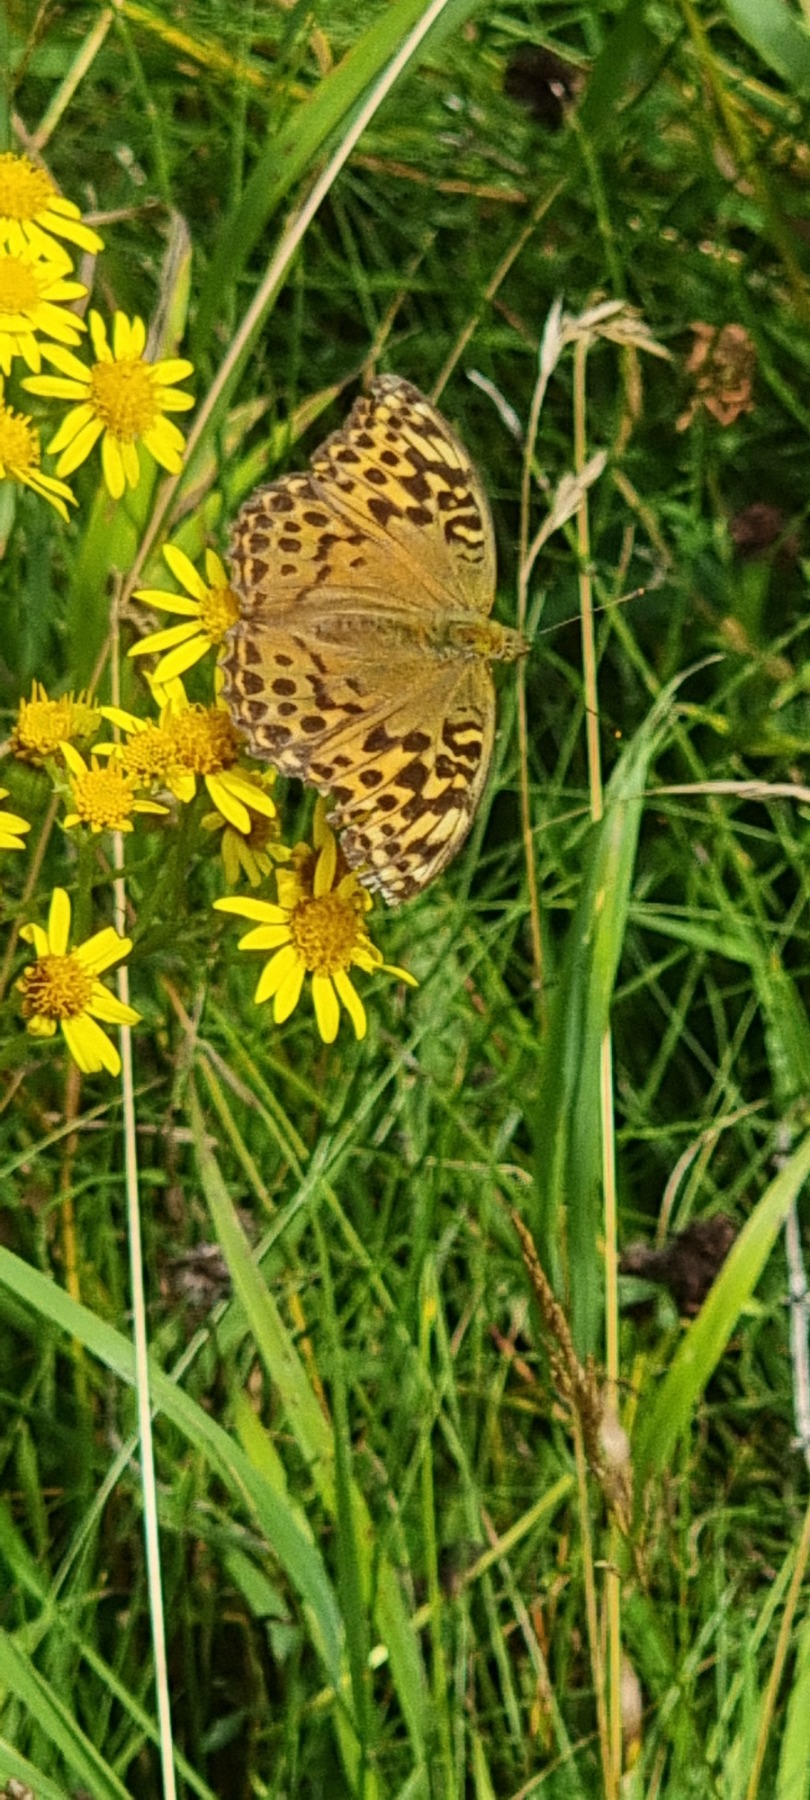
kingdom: Animalia
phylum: Arthropoda
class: Insecta
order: Lepidoptera
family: Nymphalidae
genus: Argynnis
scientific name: Argynnis paphia
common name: Kejserkåbe
